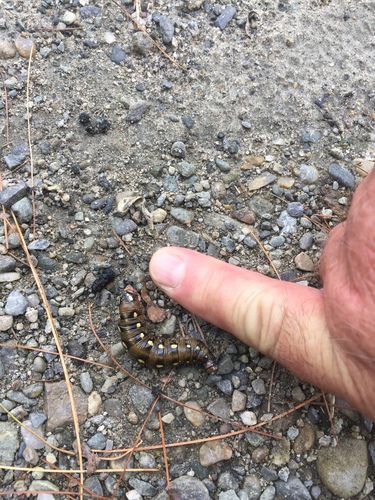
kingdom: Animalia
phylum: Arthropoda
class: Insecta
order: Lepidoptera
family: Sphingidae
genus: Hyles
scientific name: Hyles gallii
